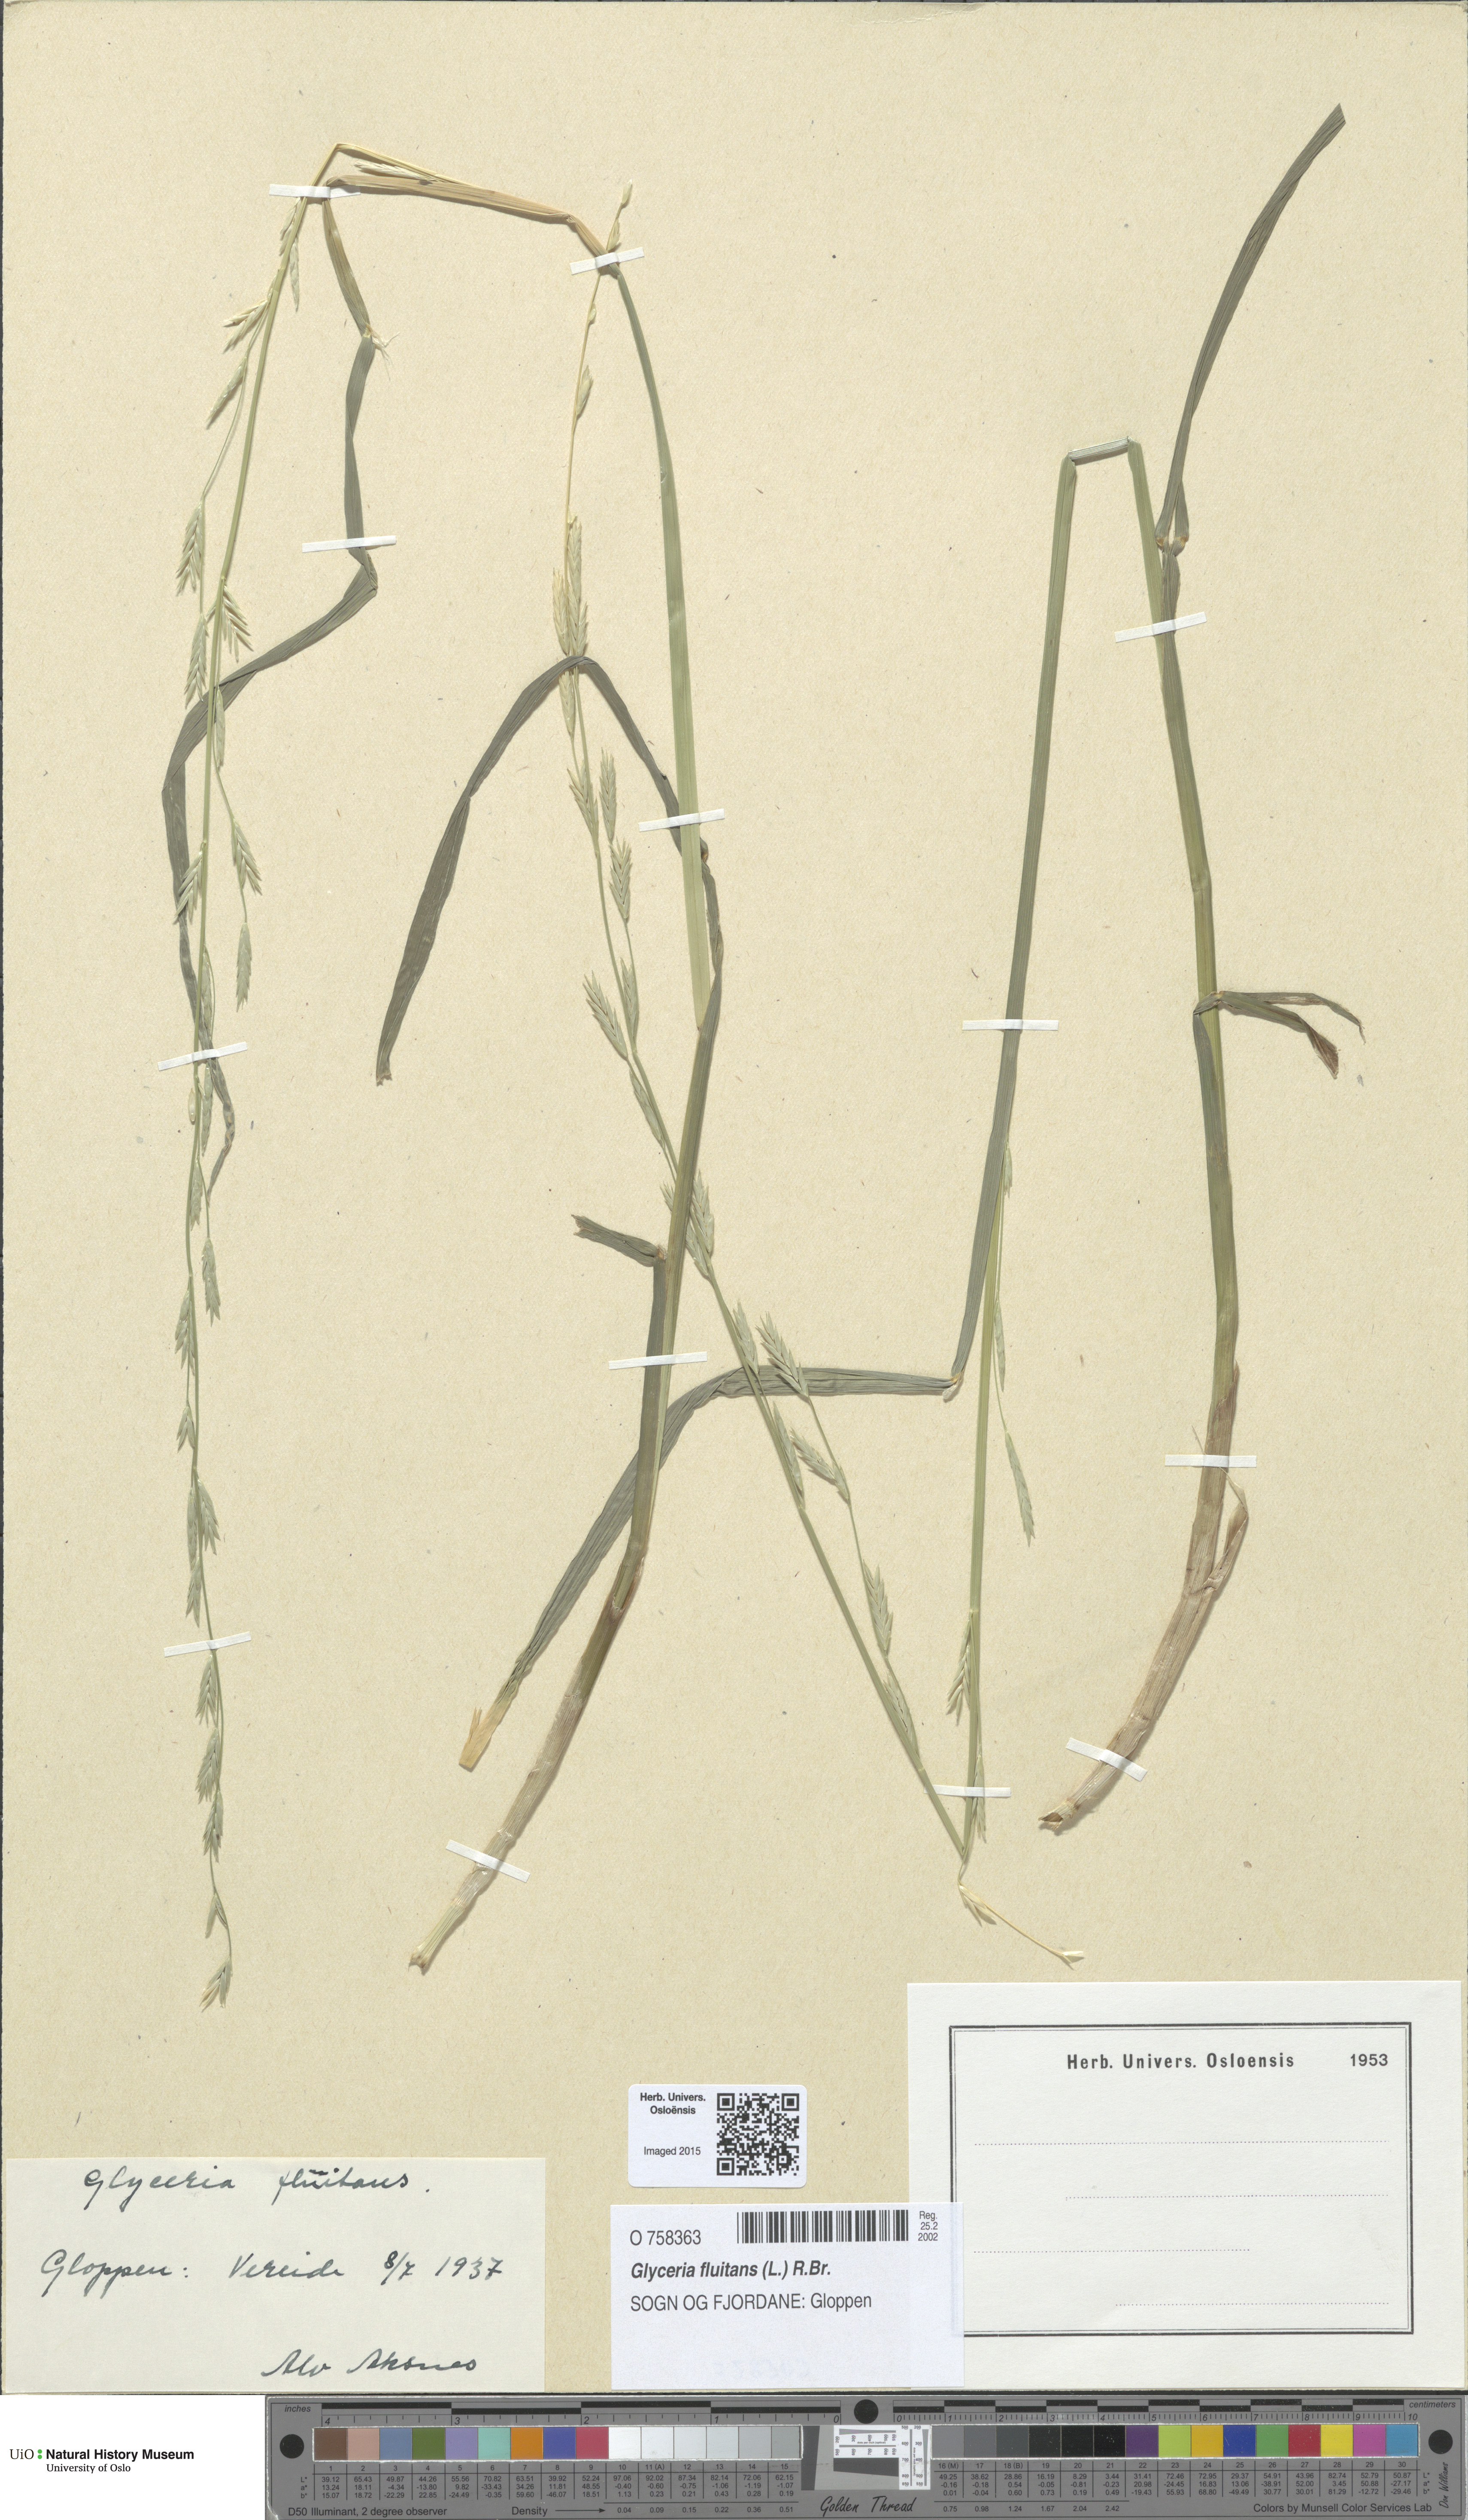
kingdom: Plantae
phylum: Tracheophyta
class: Liliopsida
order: Poales
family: Poaceae
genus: Glyceria
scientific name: Glyceria fluitans
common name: Floating sweet-grass
